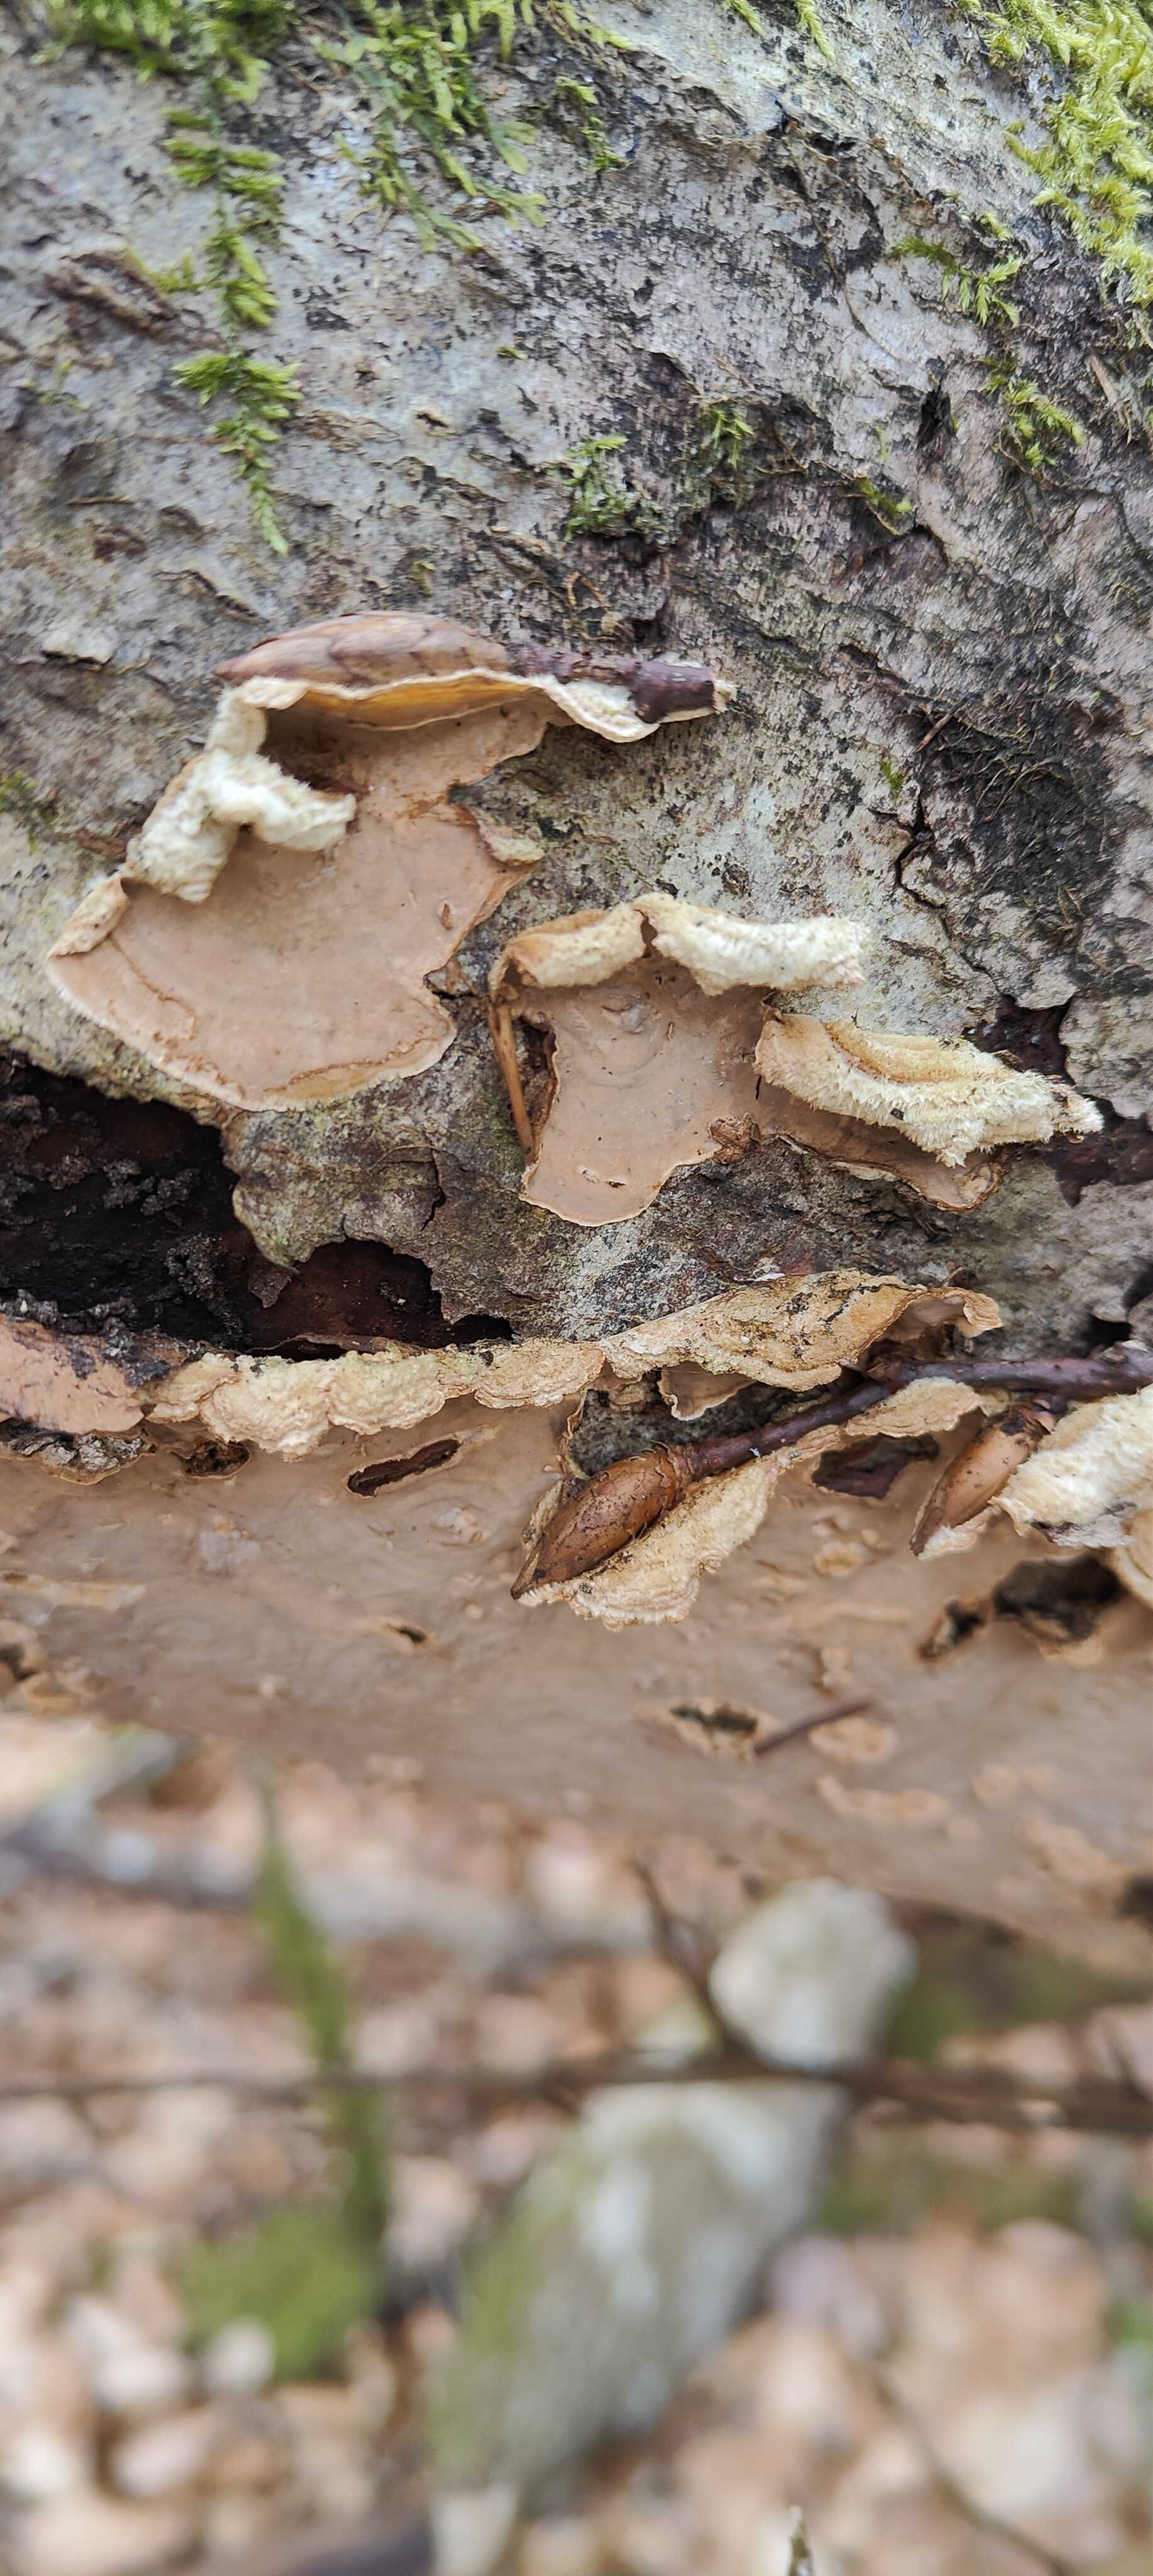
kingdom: Fungi
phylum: Basidiomycota
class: Agaricomycetes
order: Russulales
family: Peniophoraceae
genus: Peniophora
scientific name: Peniophora incarnata
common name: laksefarvet voksskind
